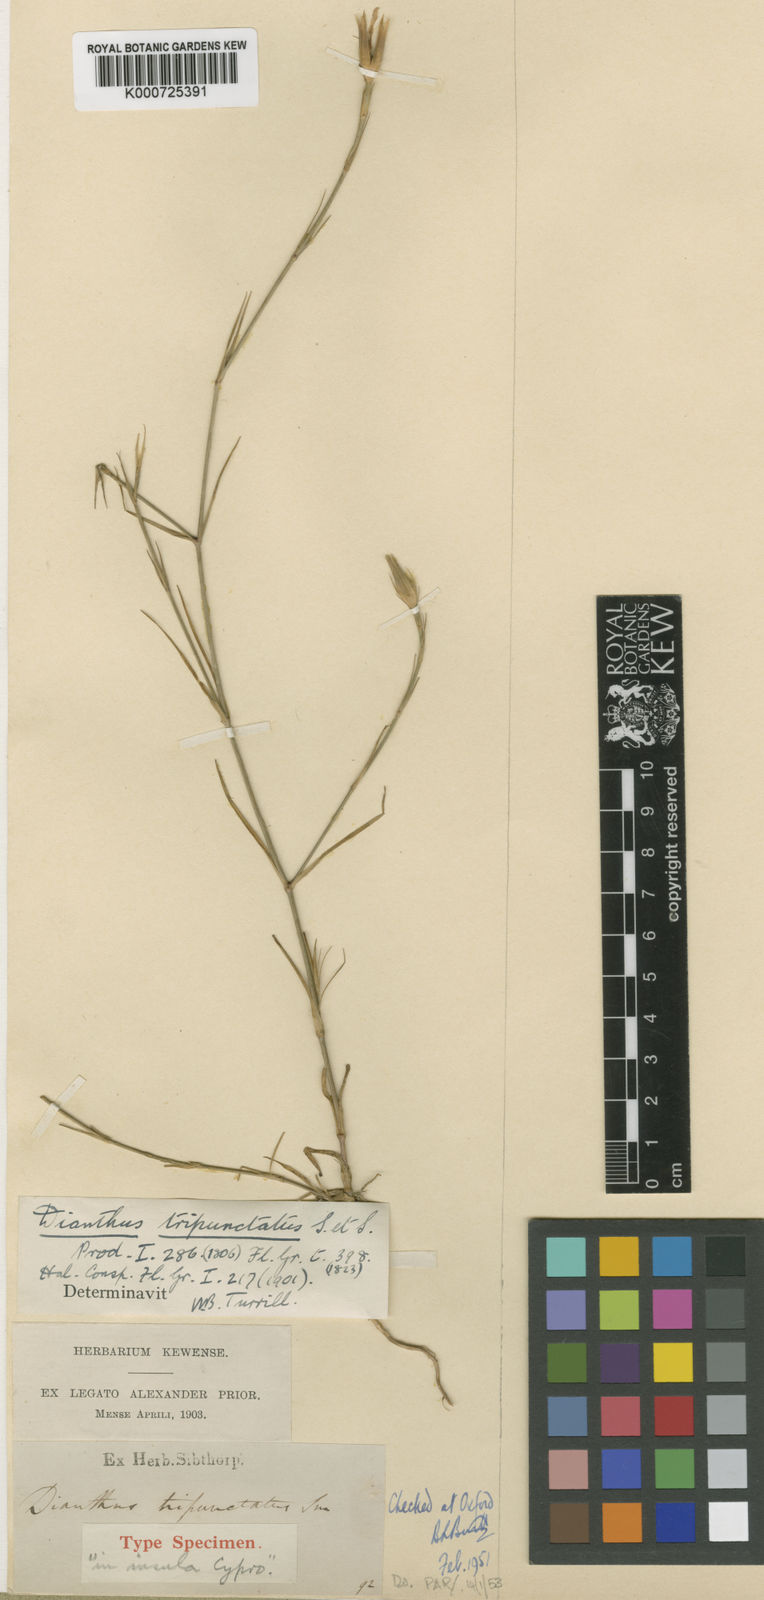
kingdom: Plantae
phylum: Tracheophyta
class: Magnoliopsida
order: Caryophyllales
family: Caryophyllaceae
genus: Dianthus
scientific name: Dianthus tripunctatus
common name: Three-spotted pink
